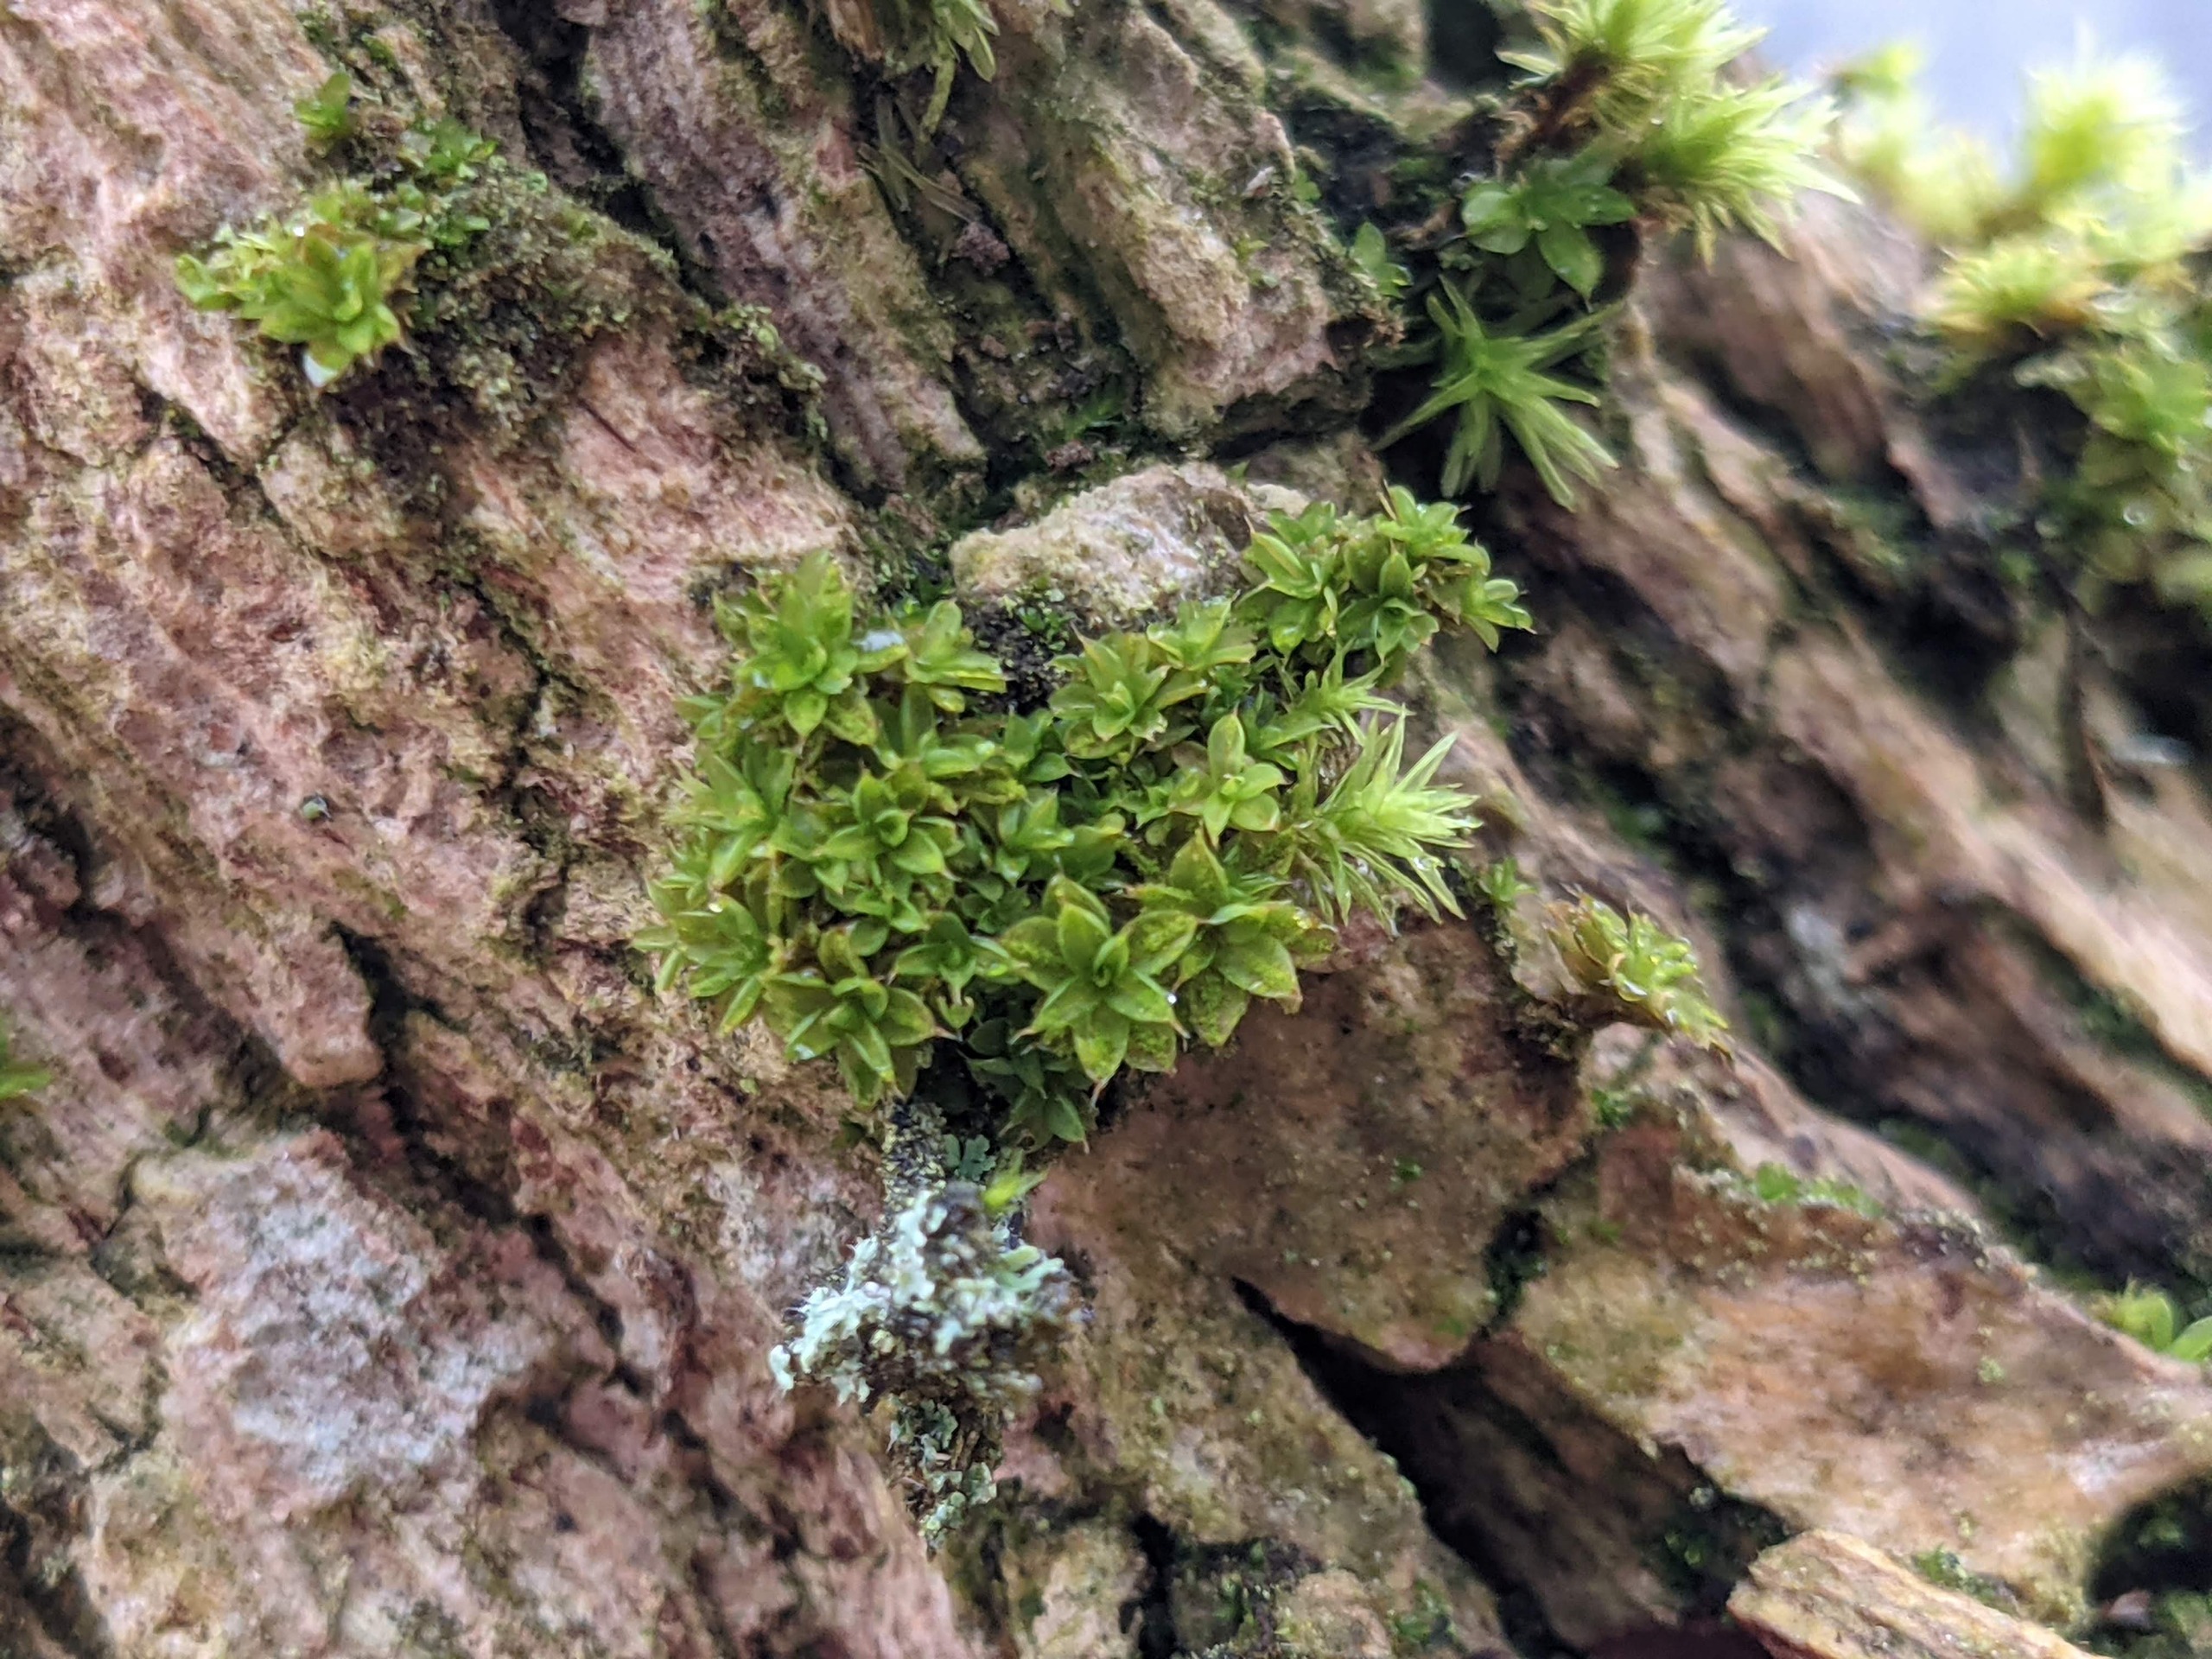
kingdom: Plantae
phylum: Bryophyta
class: Bryopsida
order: Pottiales
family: Pottiaceae
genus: Syntrichia
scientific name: Syntrichia papillosa
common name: Bark-hårstjerne
